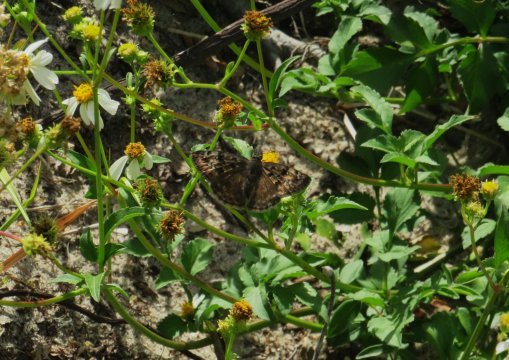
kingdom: Animalia
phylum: Arthropoda
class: Insecta
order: Lepidoptera
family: Hesperiidae
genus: Gesta
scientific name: Gesta
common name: Horace's Duskywing
